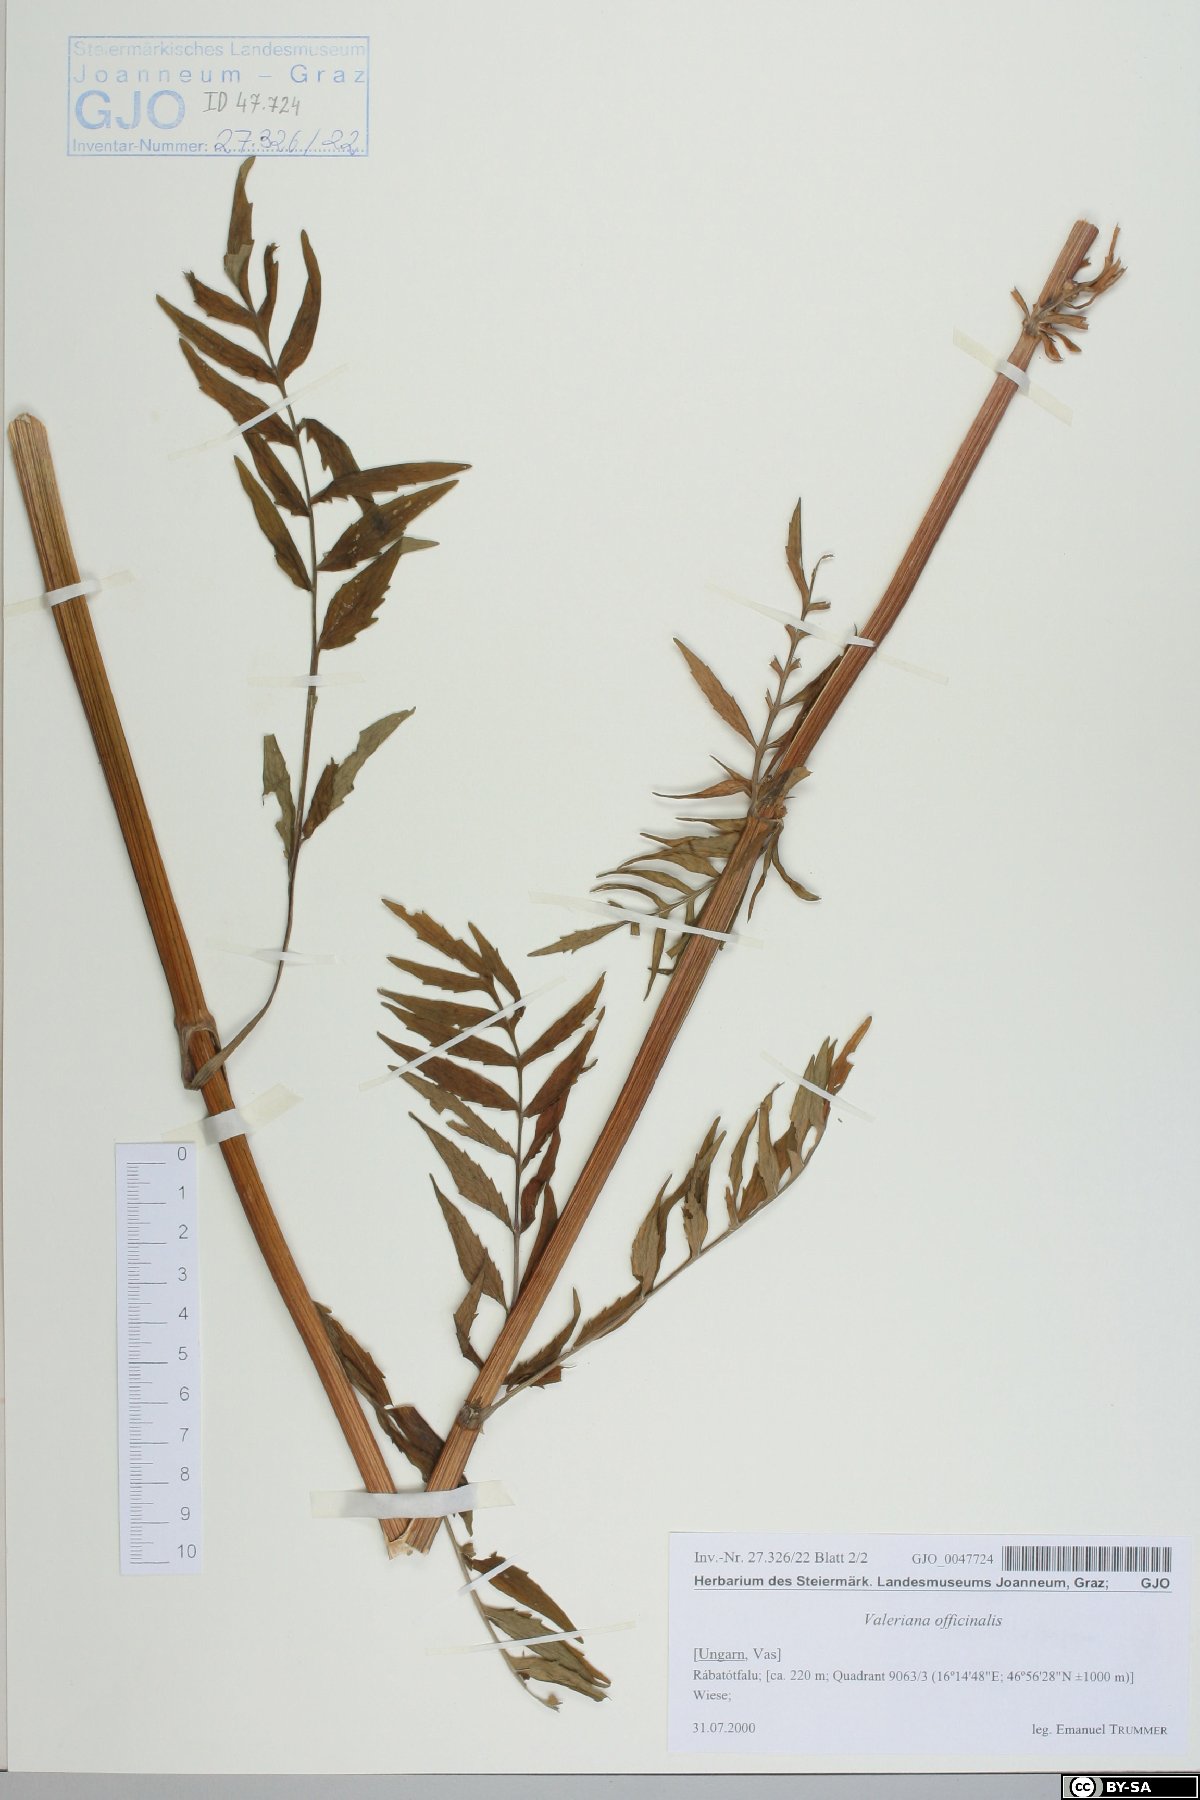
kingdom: Plantae
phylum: Tracheophyta
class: Magnoliopsida
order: Dipsacales
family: Caprifoliaceae
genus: Valeriana
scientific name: Valeriana officinalis
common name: Common valerian
